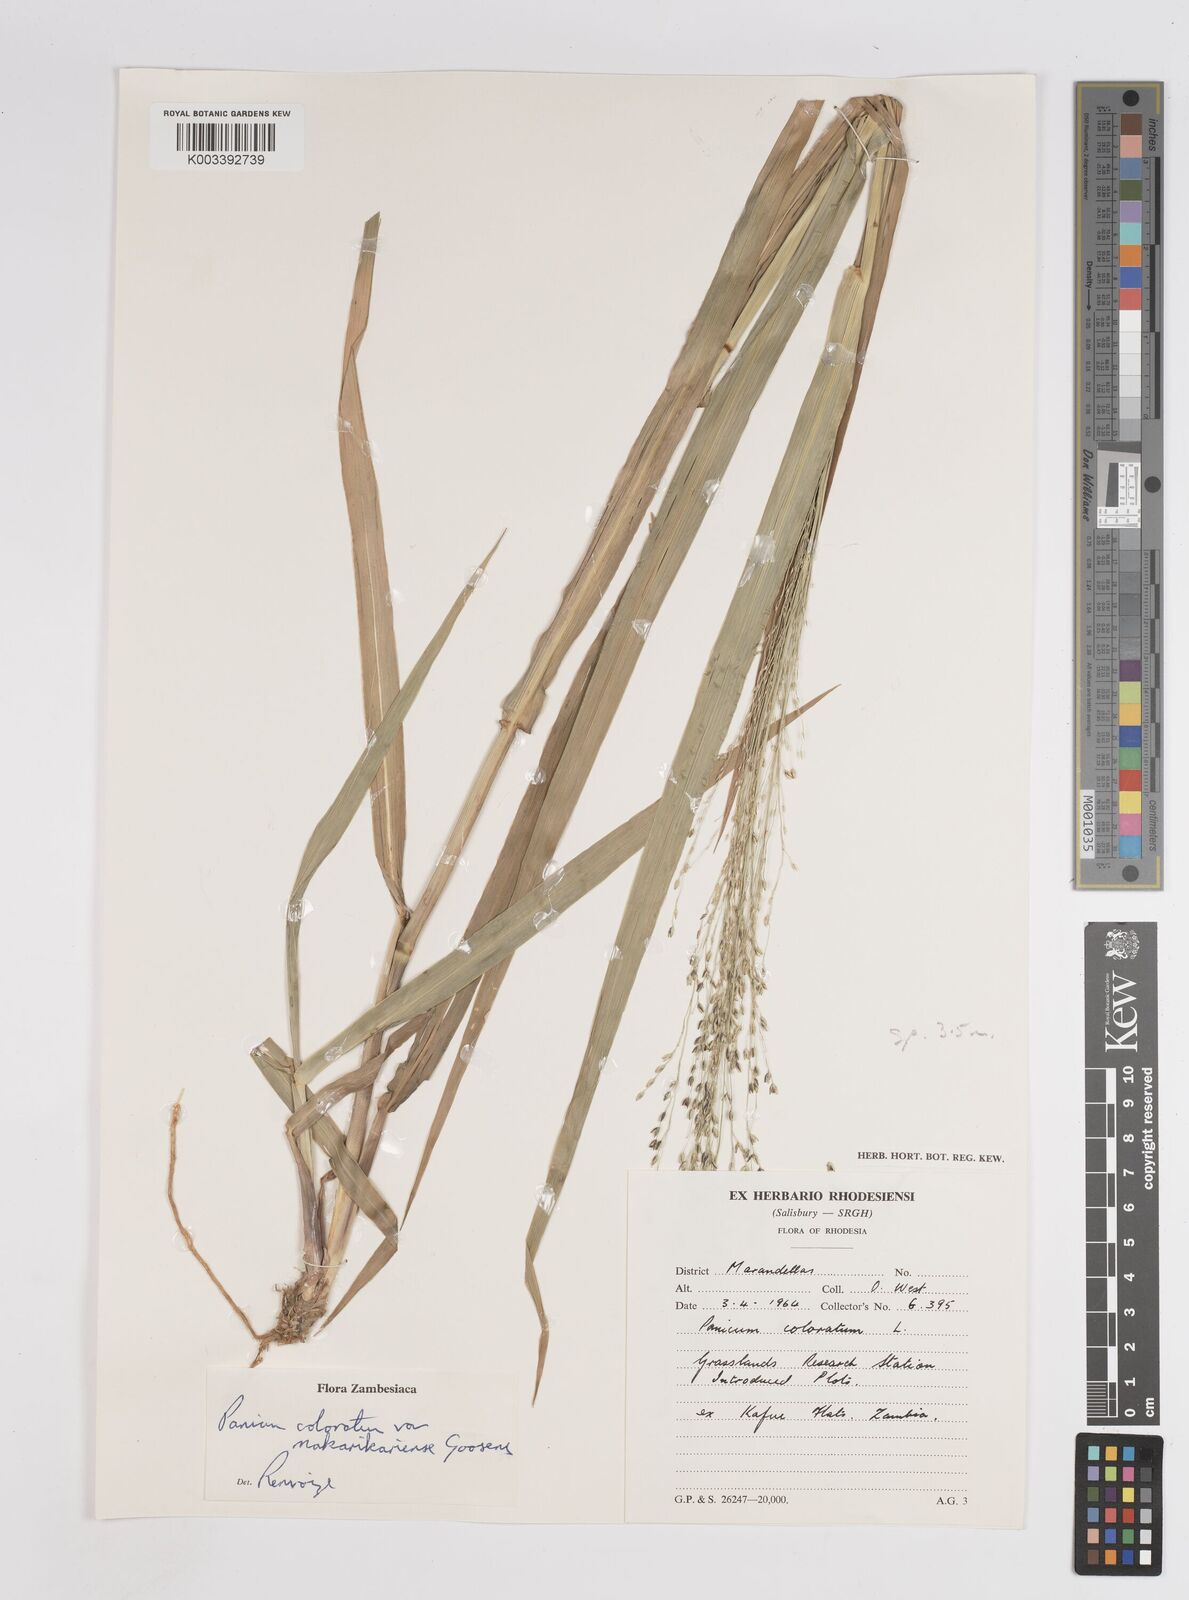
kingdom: Plantae
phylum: Tracheophyta
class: Liliopsida
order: Poales
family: Poaceae
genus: Panicum
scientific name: Panicum coloratum
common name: Kleingrass
